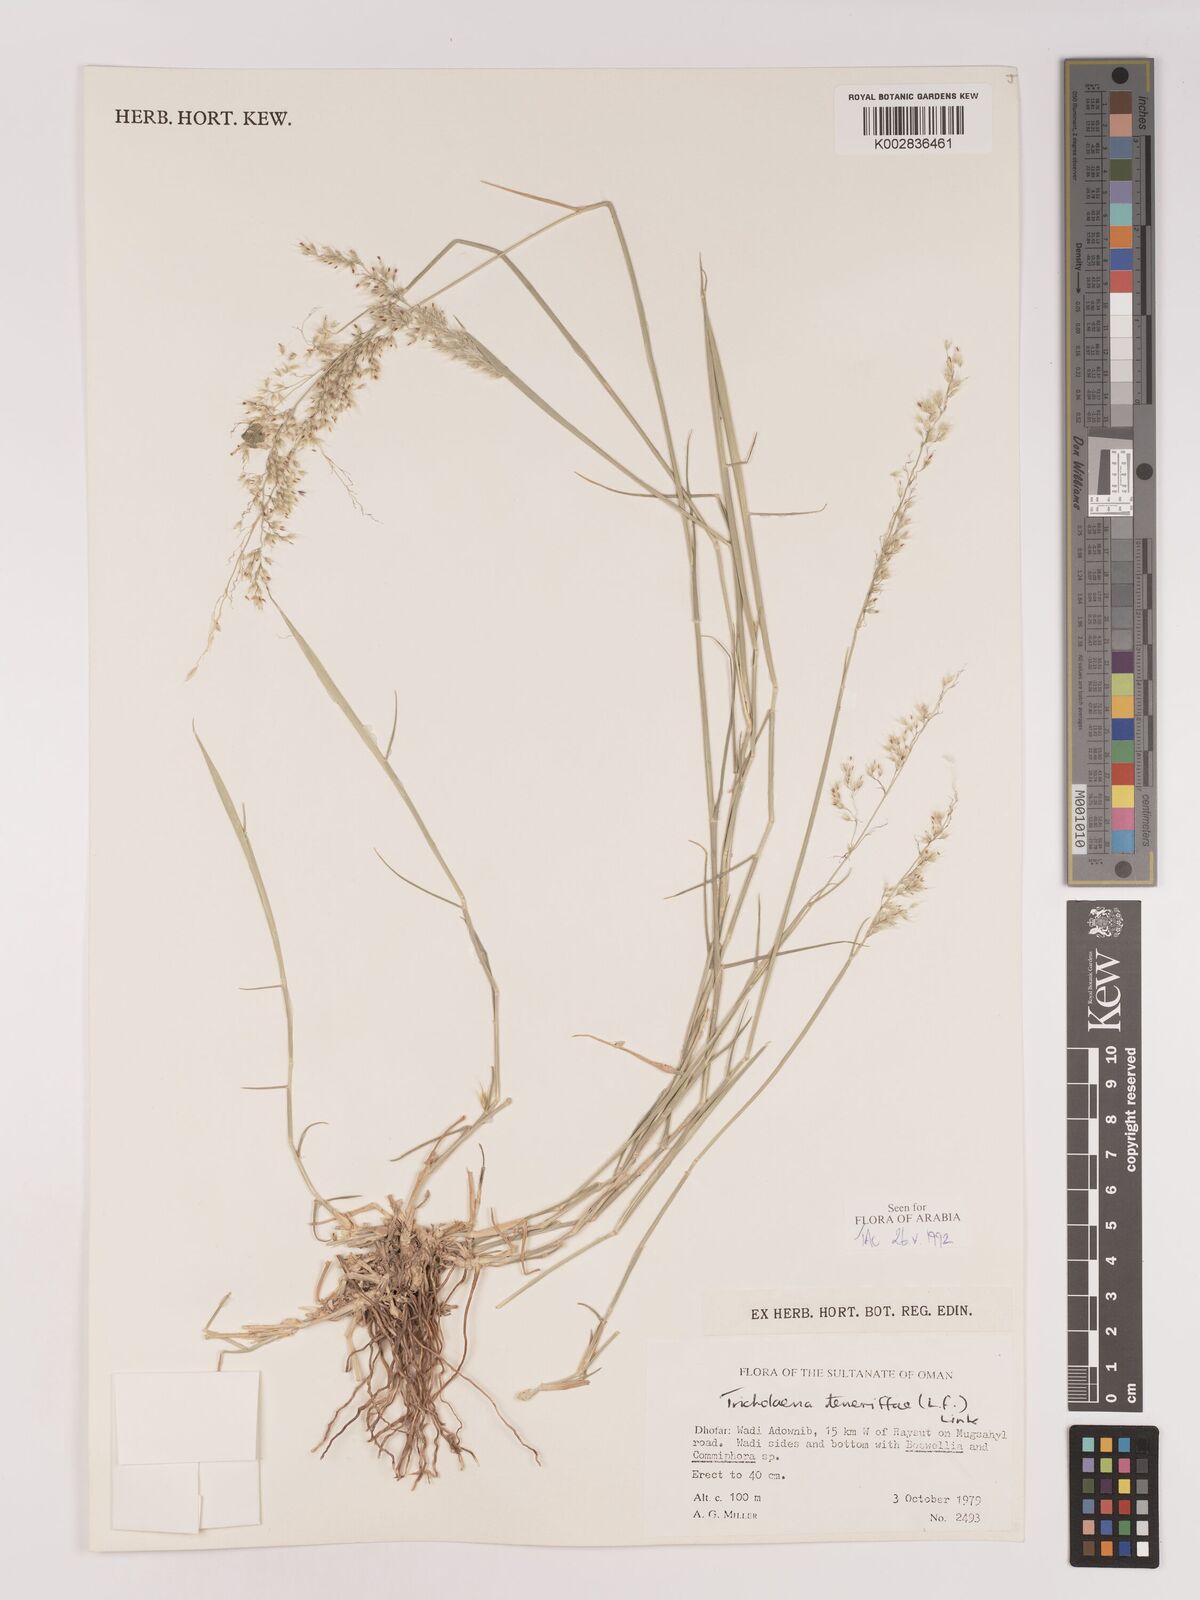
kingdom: Plantae
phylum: Tracheophyta
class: Liliopsida
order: Poales
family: Poaceae
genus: Tricholaena
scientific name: Tricholaena teneriffae
